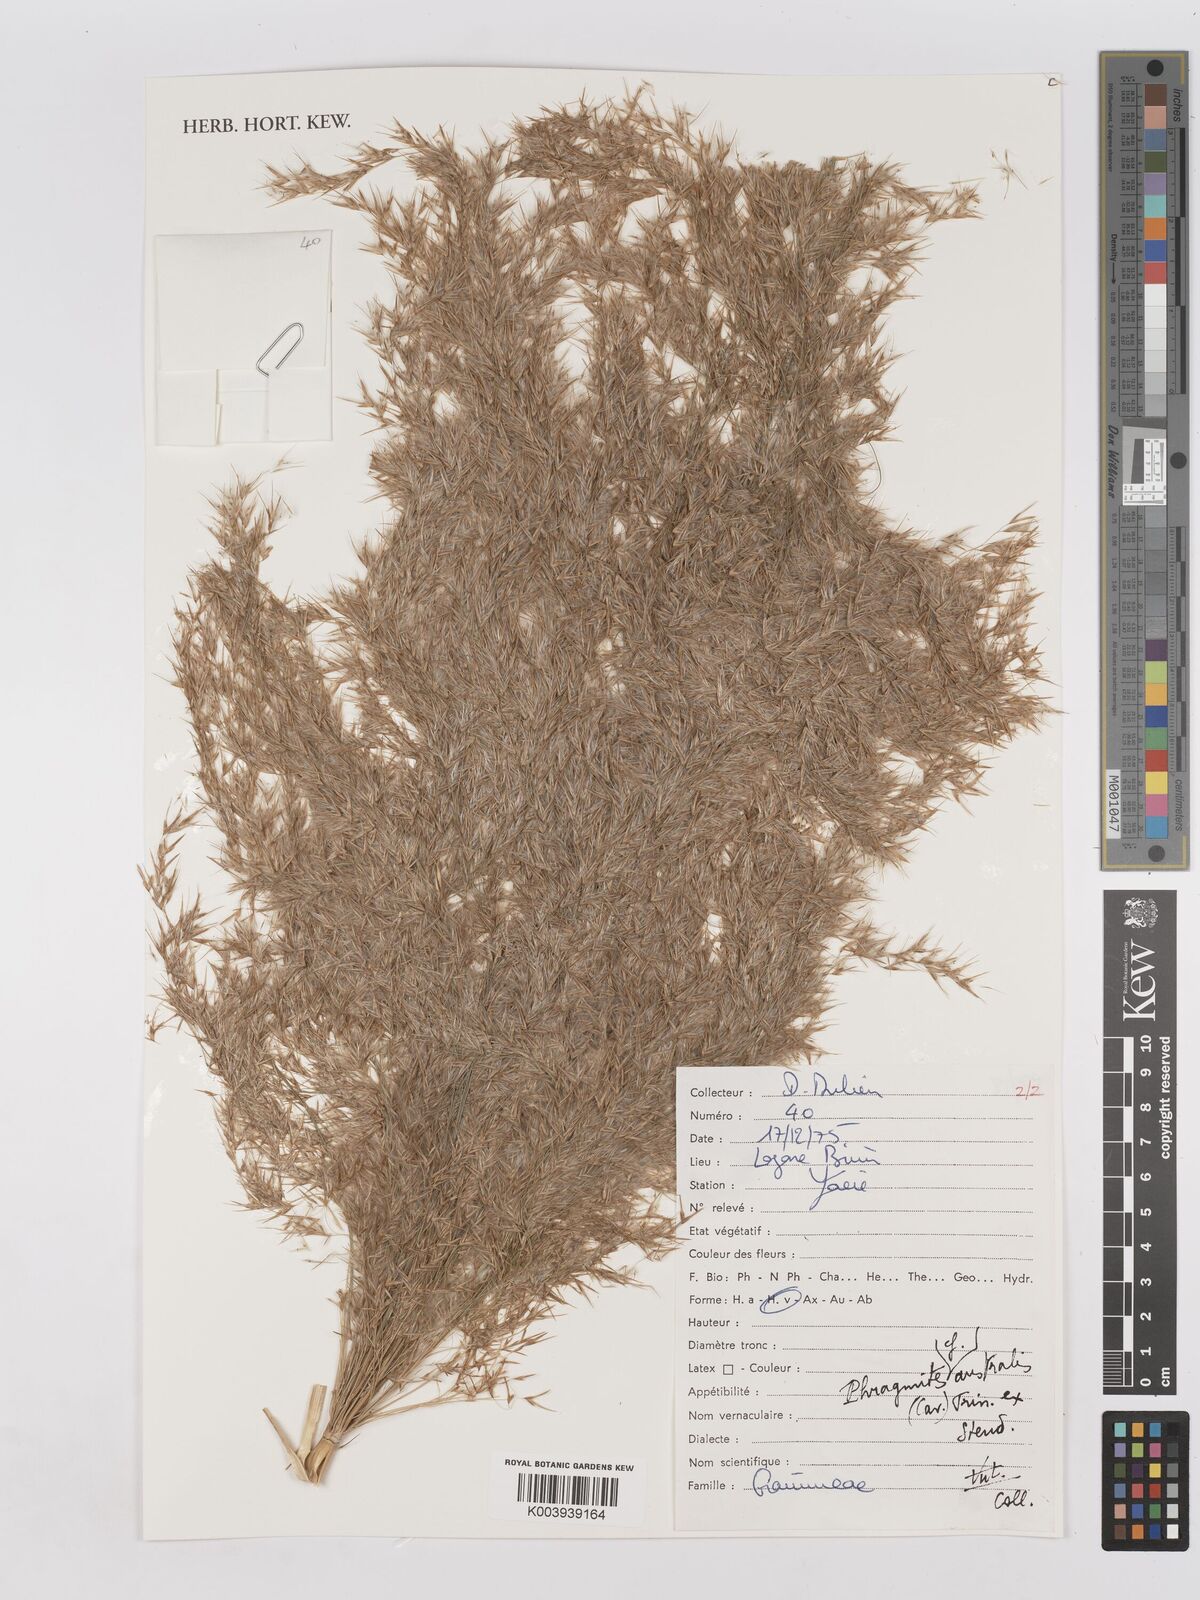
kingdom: Plantae
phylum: Tracheophyta
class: Liliopsida
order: Poales
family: Poaceae
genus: Phragmites
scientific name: Phragmites australis
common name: Common reed
